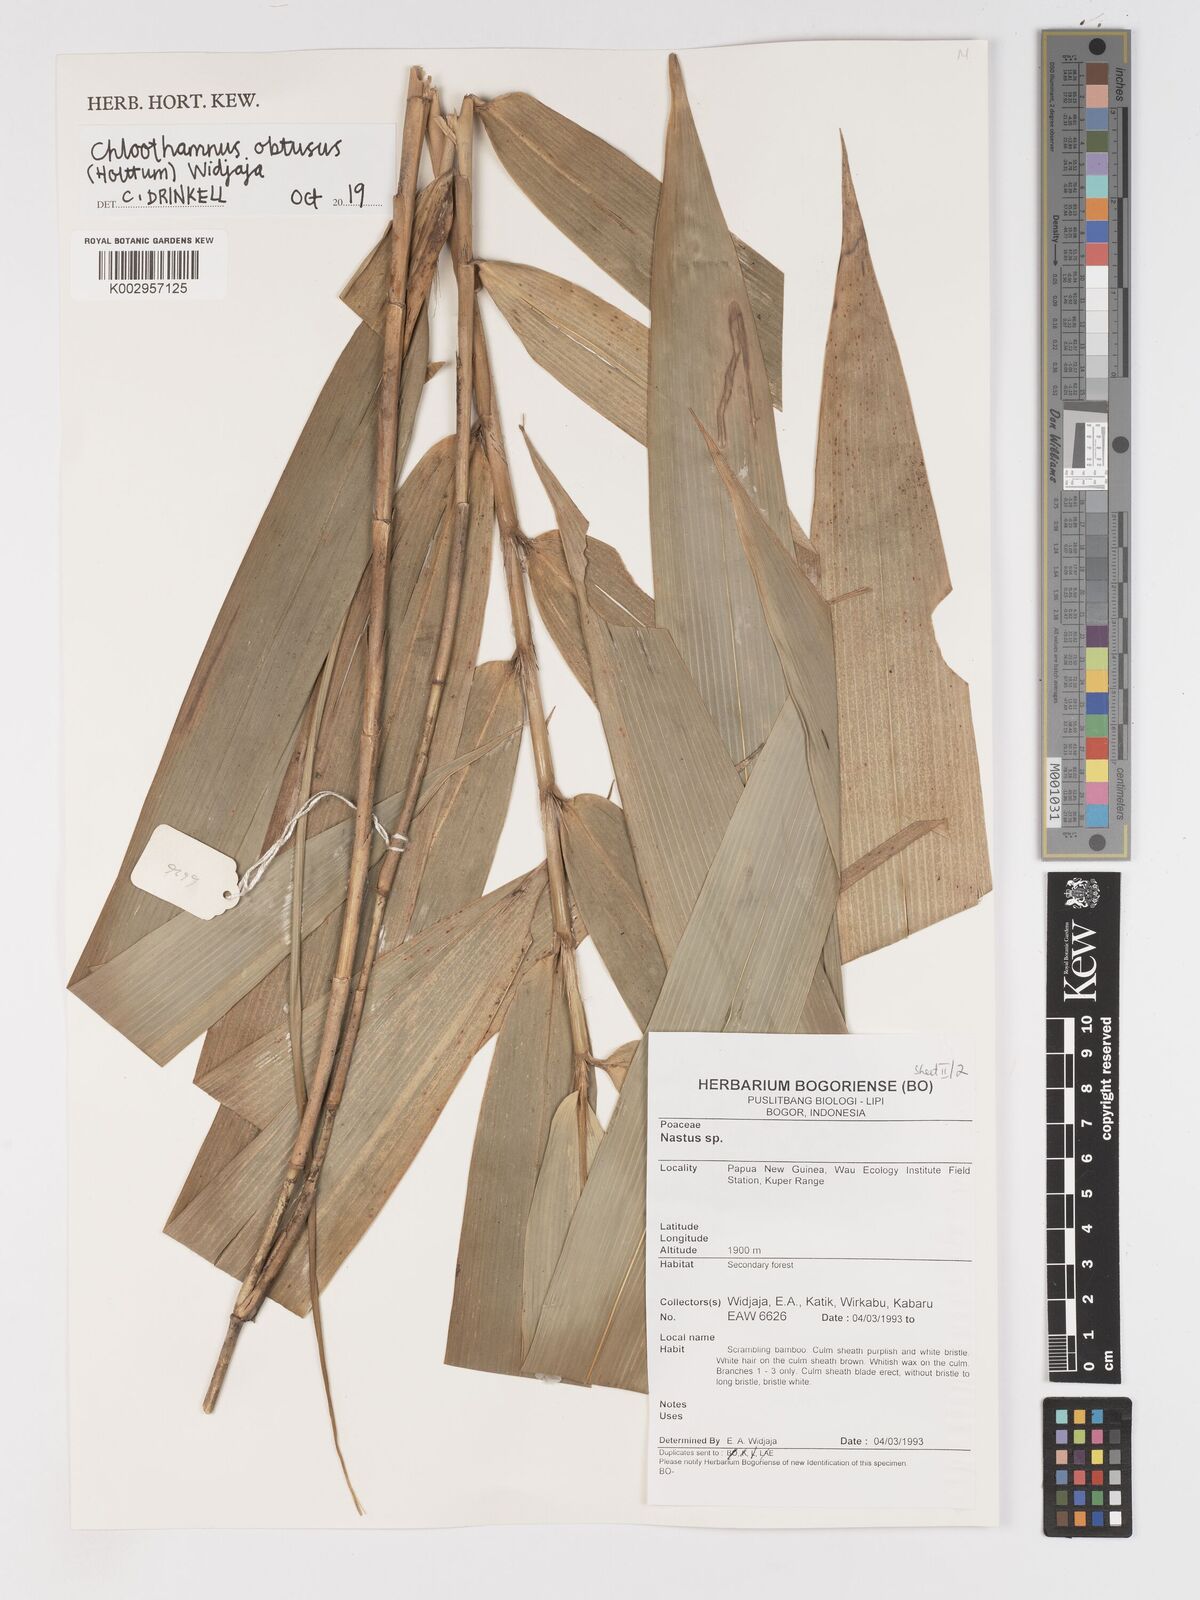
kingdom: Plantae
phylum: Tracheophyta
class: Liliopsida
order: Poales
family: Poaceae
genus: Chloothamnus
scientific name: Chloothamnus obtusus
